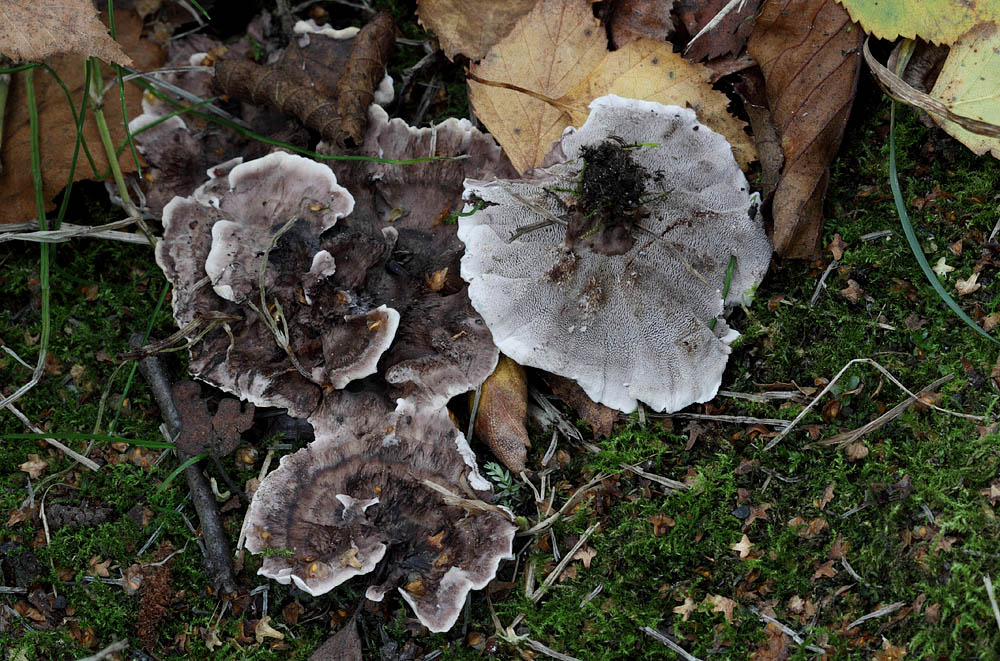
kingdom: Fungi
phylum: Basidiomycota
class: Agaricomycetes
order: Thelephorales
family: Thelephoraceae
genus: Phellodon
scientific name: Phellodon tomentosus
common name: vellugtende duftpigsvamp
